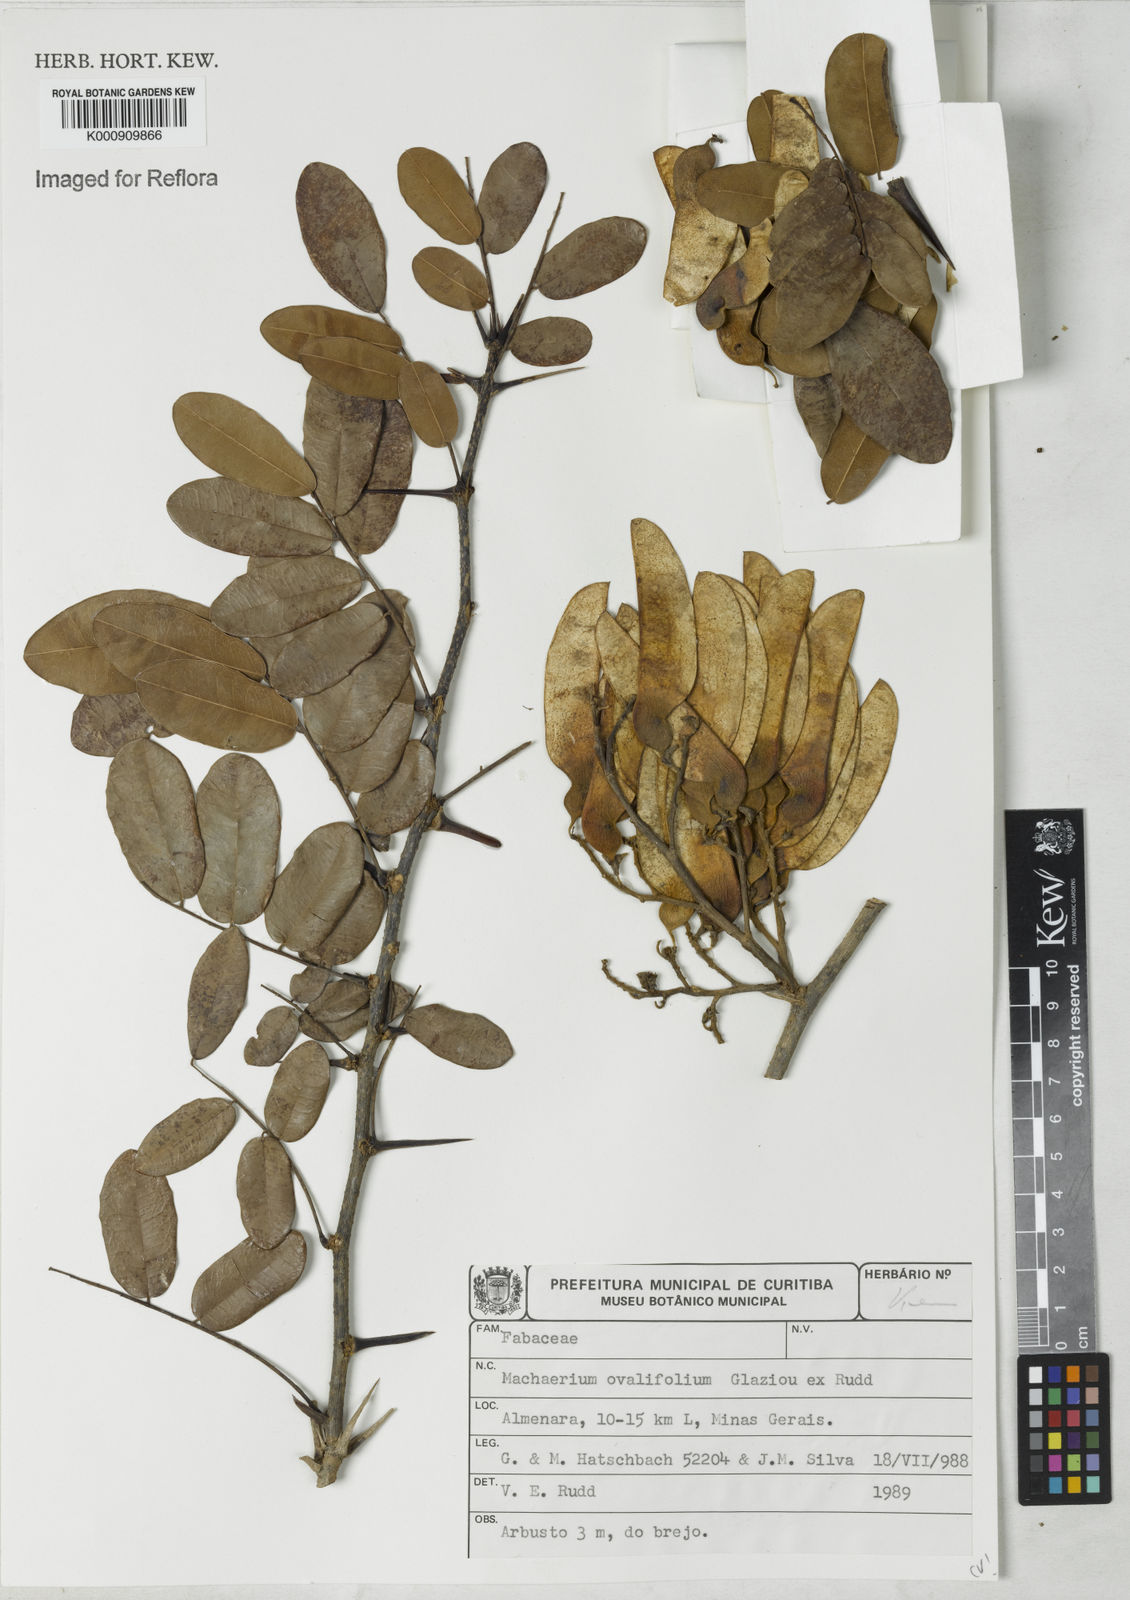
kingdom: Plantae
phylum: Tracheophyta
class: Magnoliopsida
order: Fabales
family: Fabaceae
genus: Machaerium
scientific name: Machaerium ovalifolium
